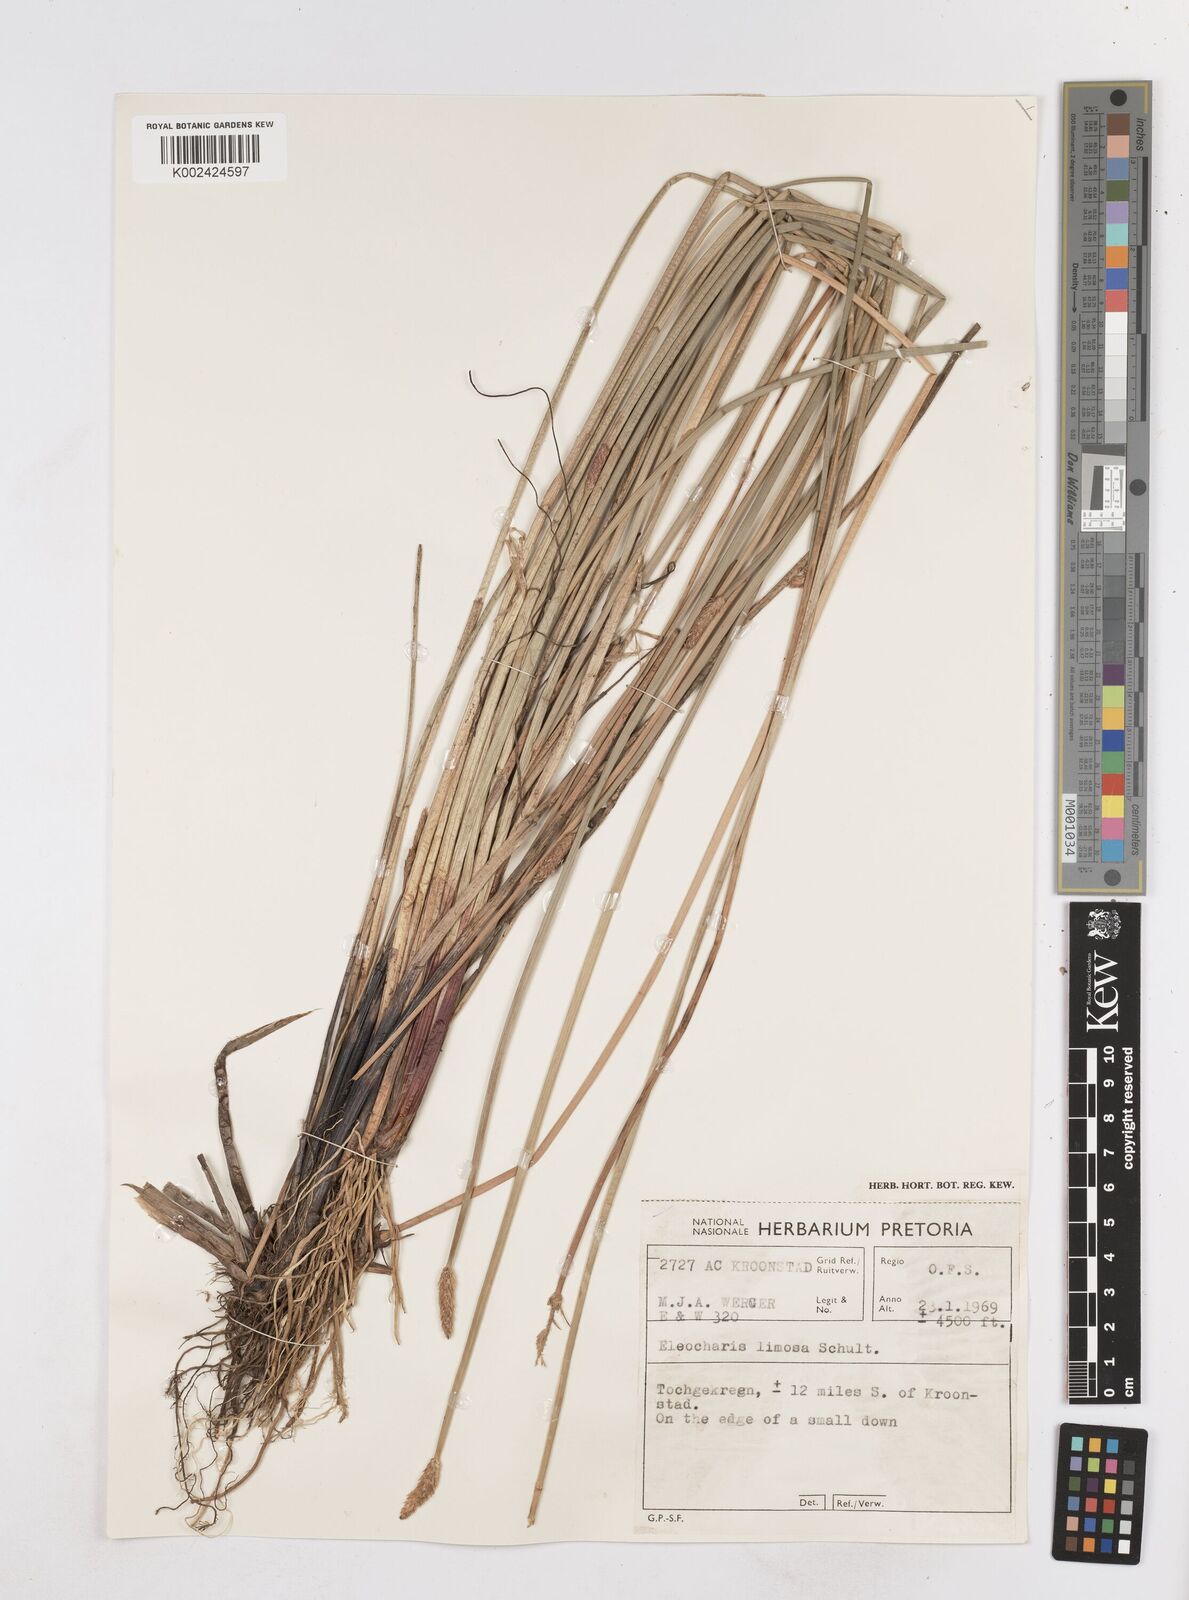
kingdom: Plantae
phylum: Tracheophyta
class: Liliopsida
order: Poales
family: Cyperaceae
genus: Eleocharis
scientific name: Eleocharis limosa
